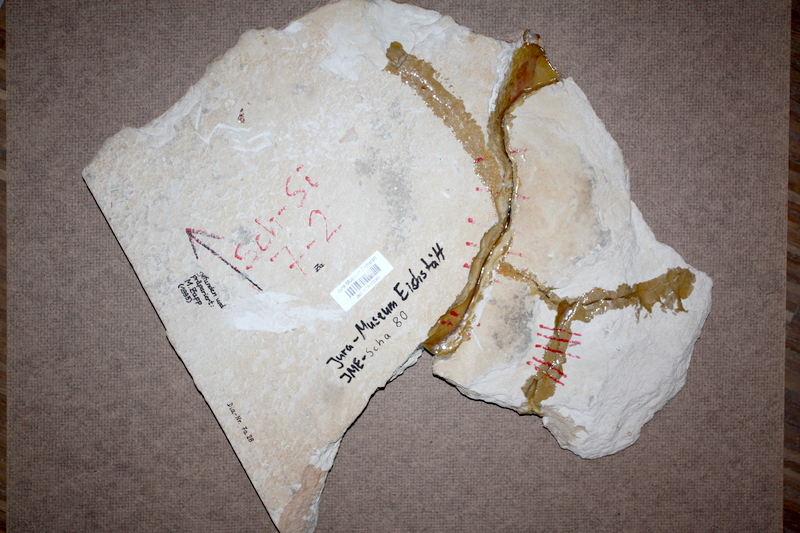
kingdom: Animalia
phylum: Chordata
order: Lepisosteiformes
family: Lepidotidae
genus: Scheenstia
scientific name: Scheenstia zappi
